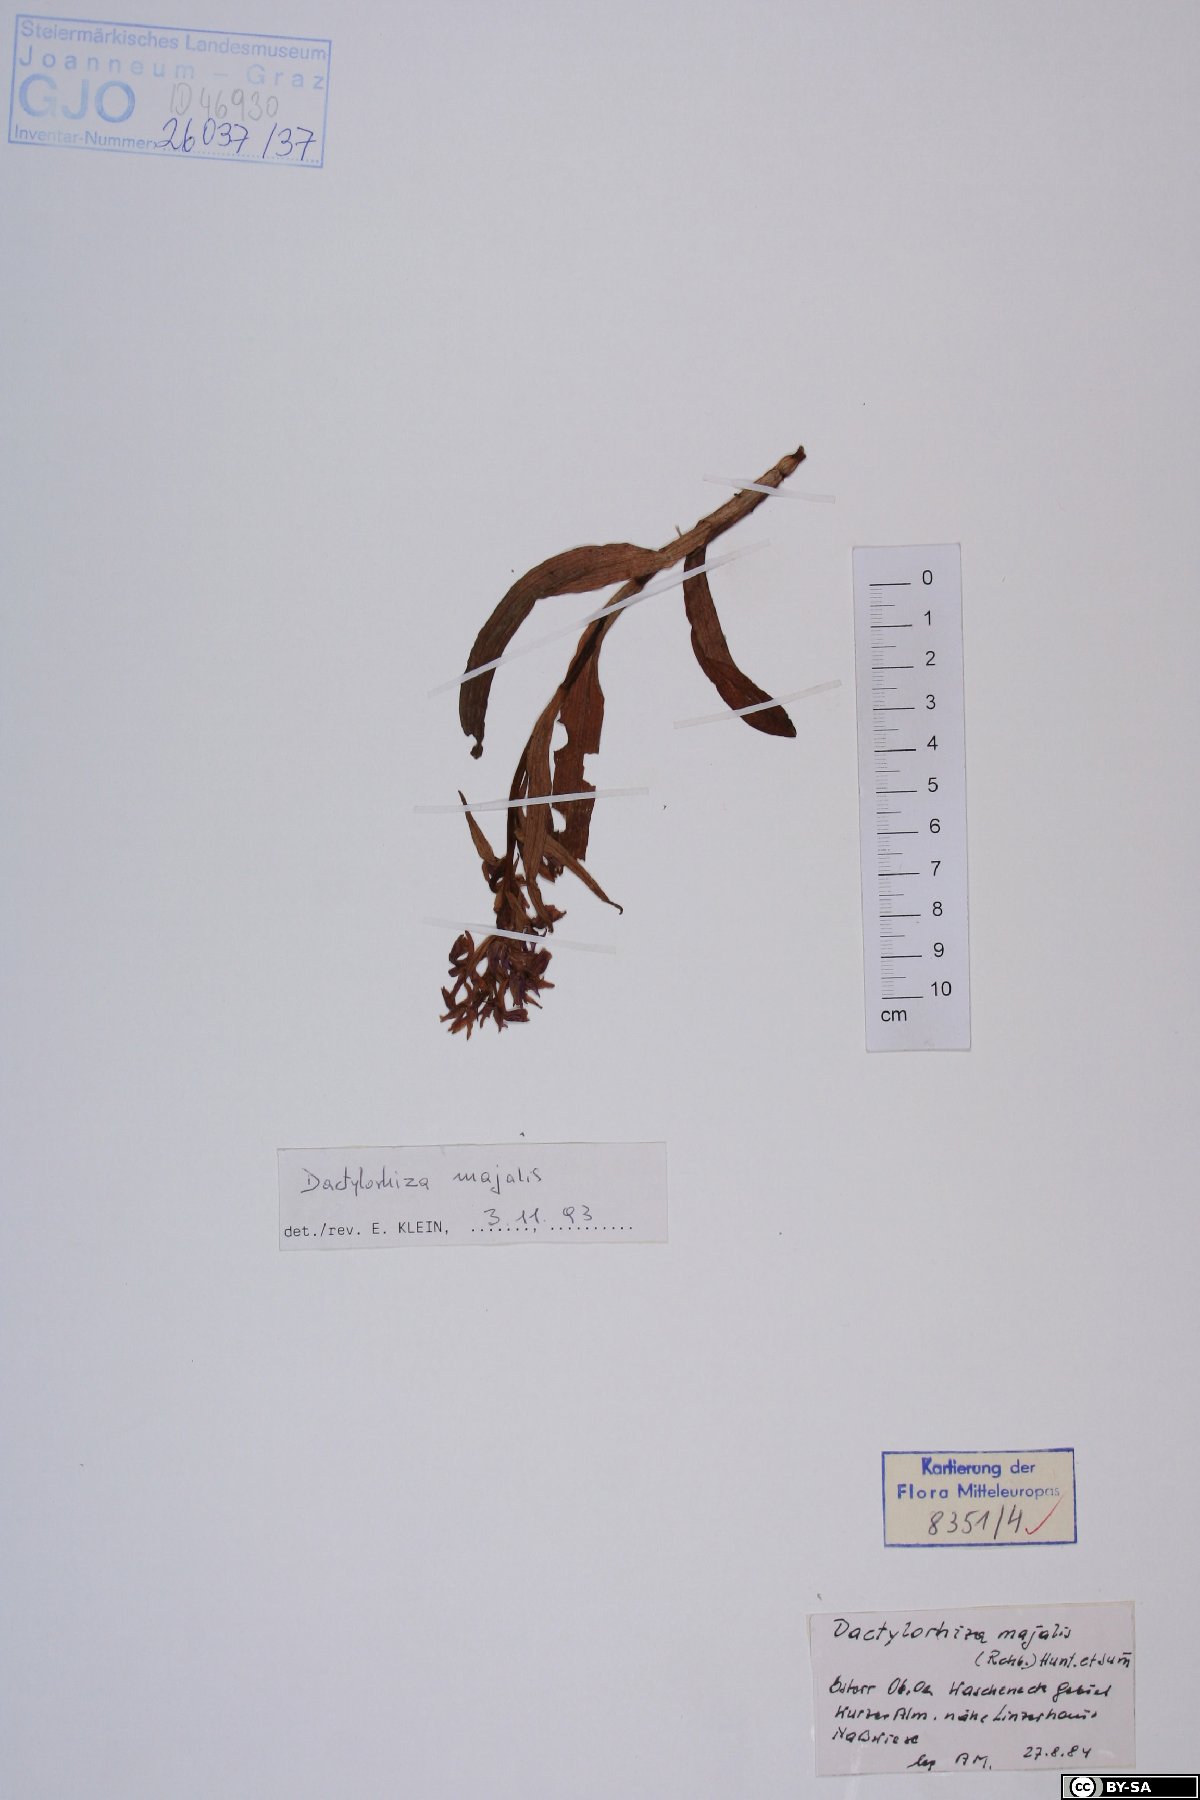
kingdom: Plantae
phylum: Tracheophyta
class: Liliopsida
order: Asparagales
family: Orchidaceae
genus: Dactylorhiza
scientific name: Dactylorhiza majalis
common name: Marsh orchid
